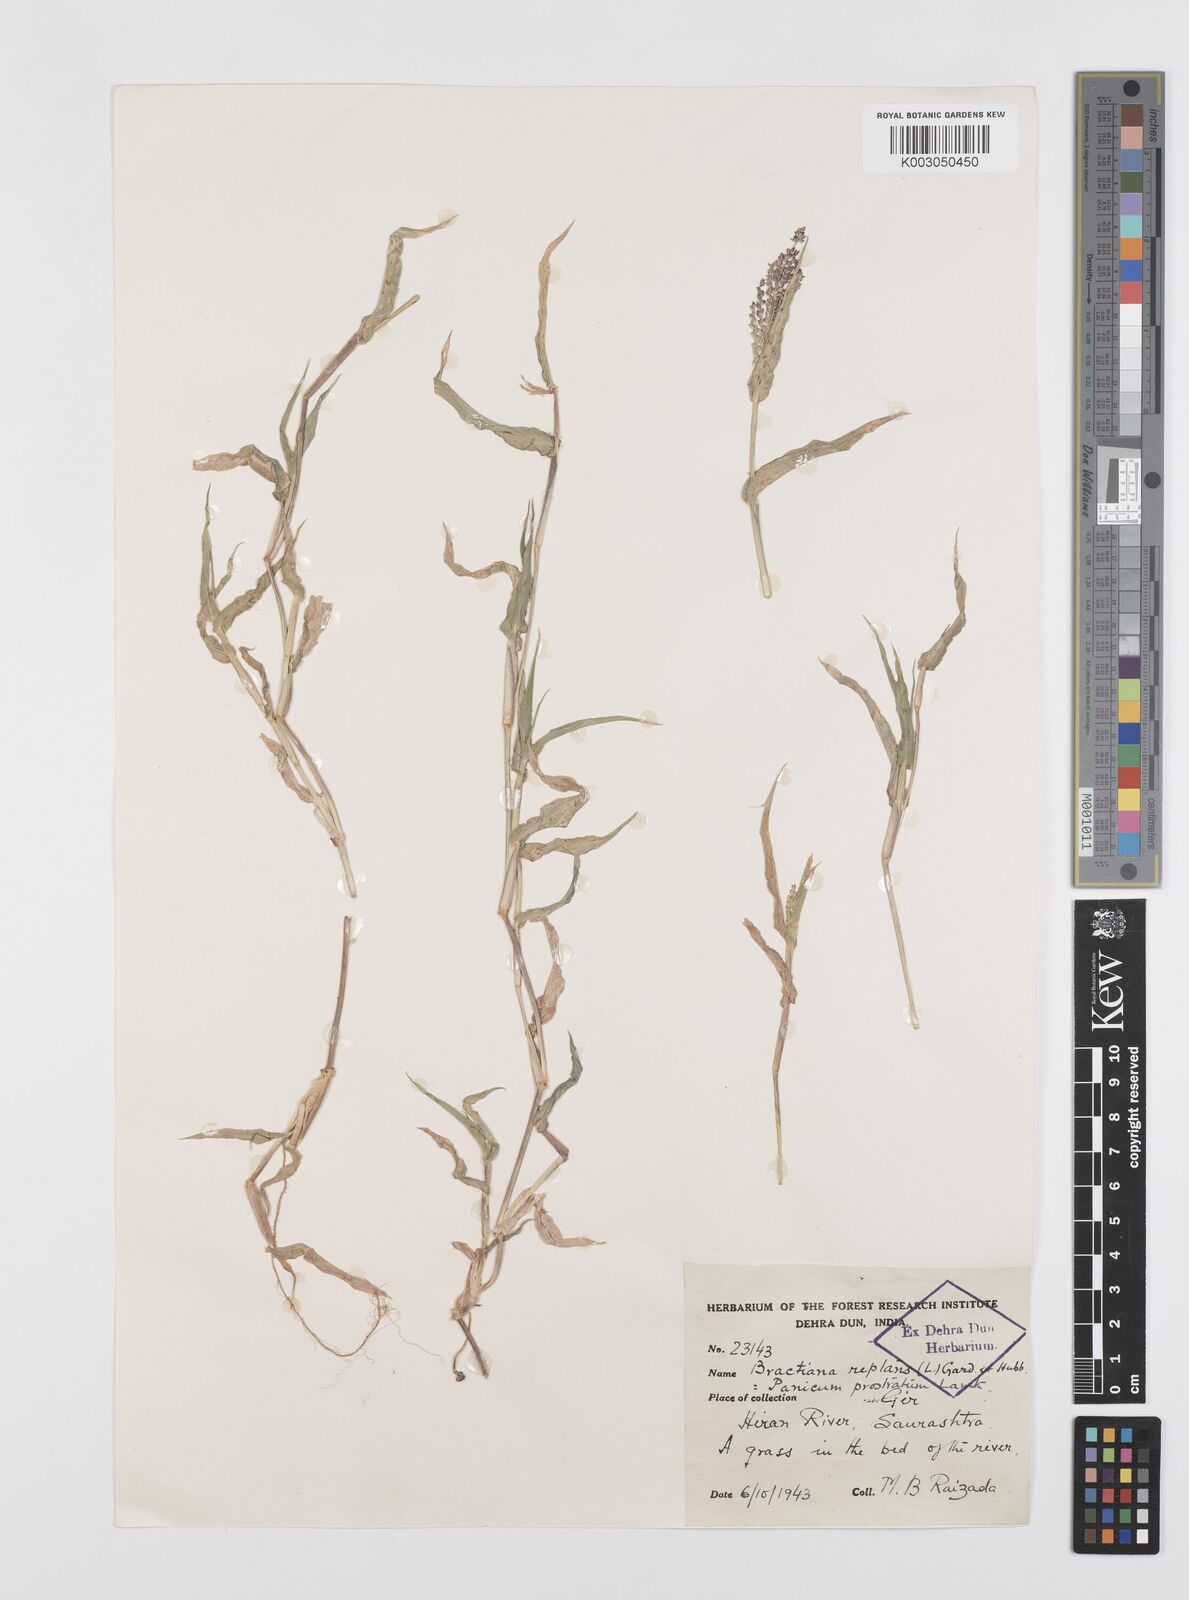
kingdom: Plantae
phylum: Tracheophyta
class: Liliopsida
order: Poales
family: Poaceae
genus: Urochloa
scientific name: Urochloa reptans
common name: Sprawling signalgrass
